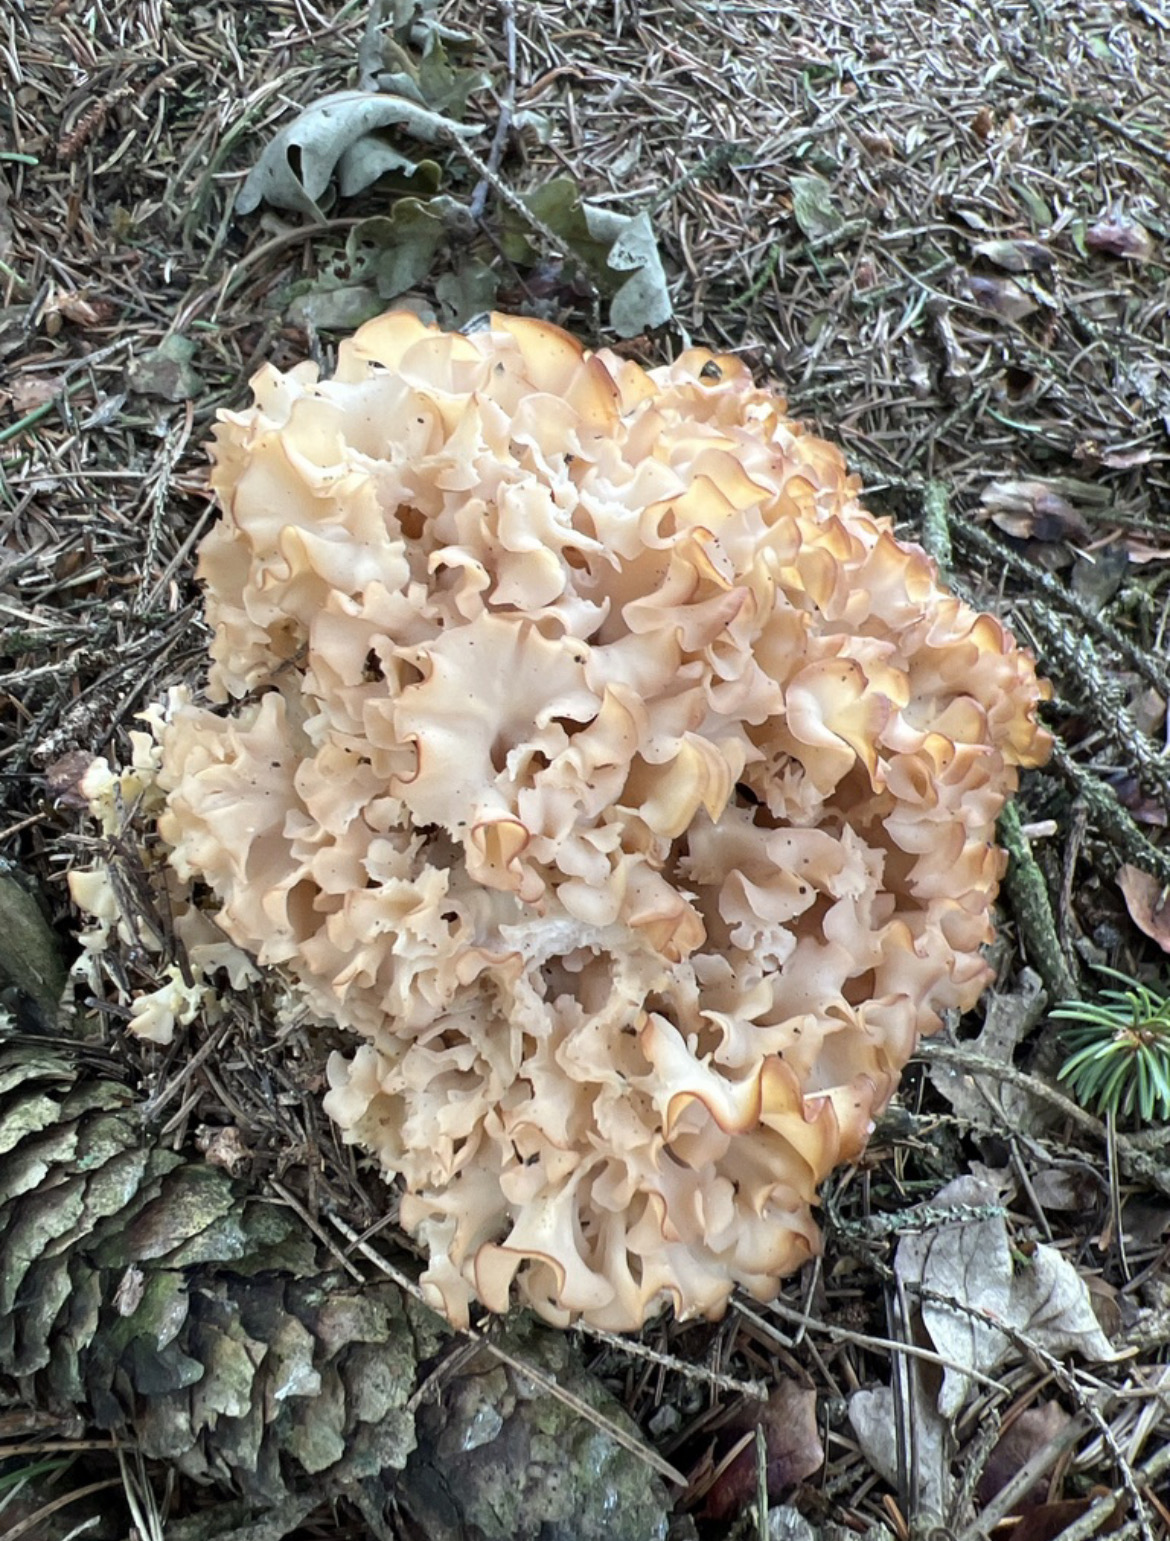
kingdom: Fungi
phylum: Basidiomycota
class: Agaricomycetes
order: Polyporales
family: Sparassidaceae
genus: Sparassis
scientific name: Sparassis crispa
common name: kruset blomkålssvamp
